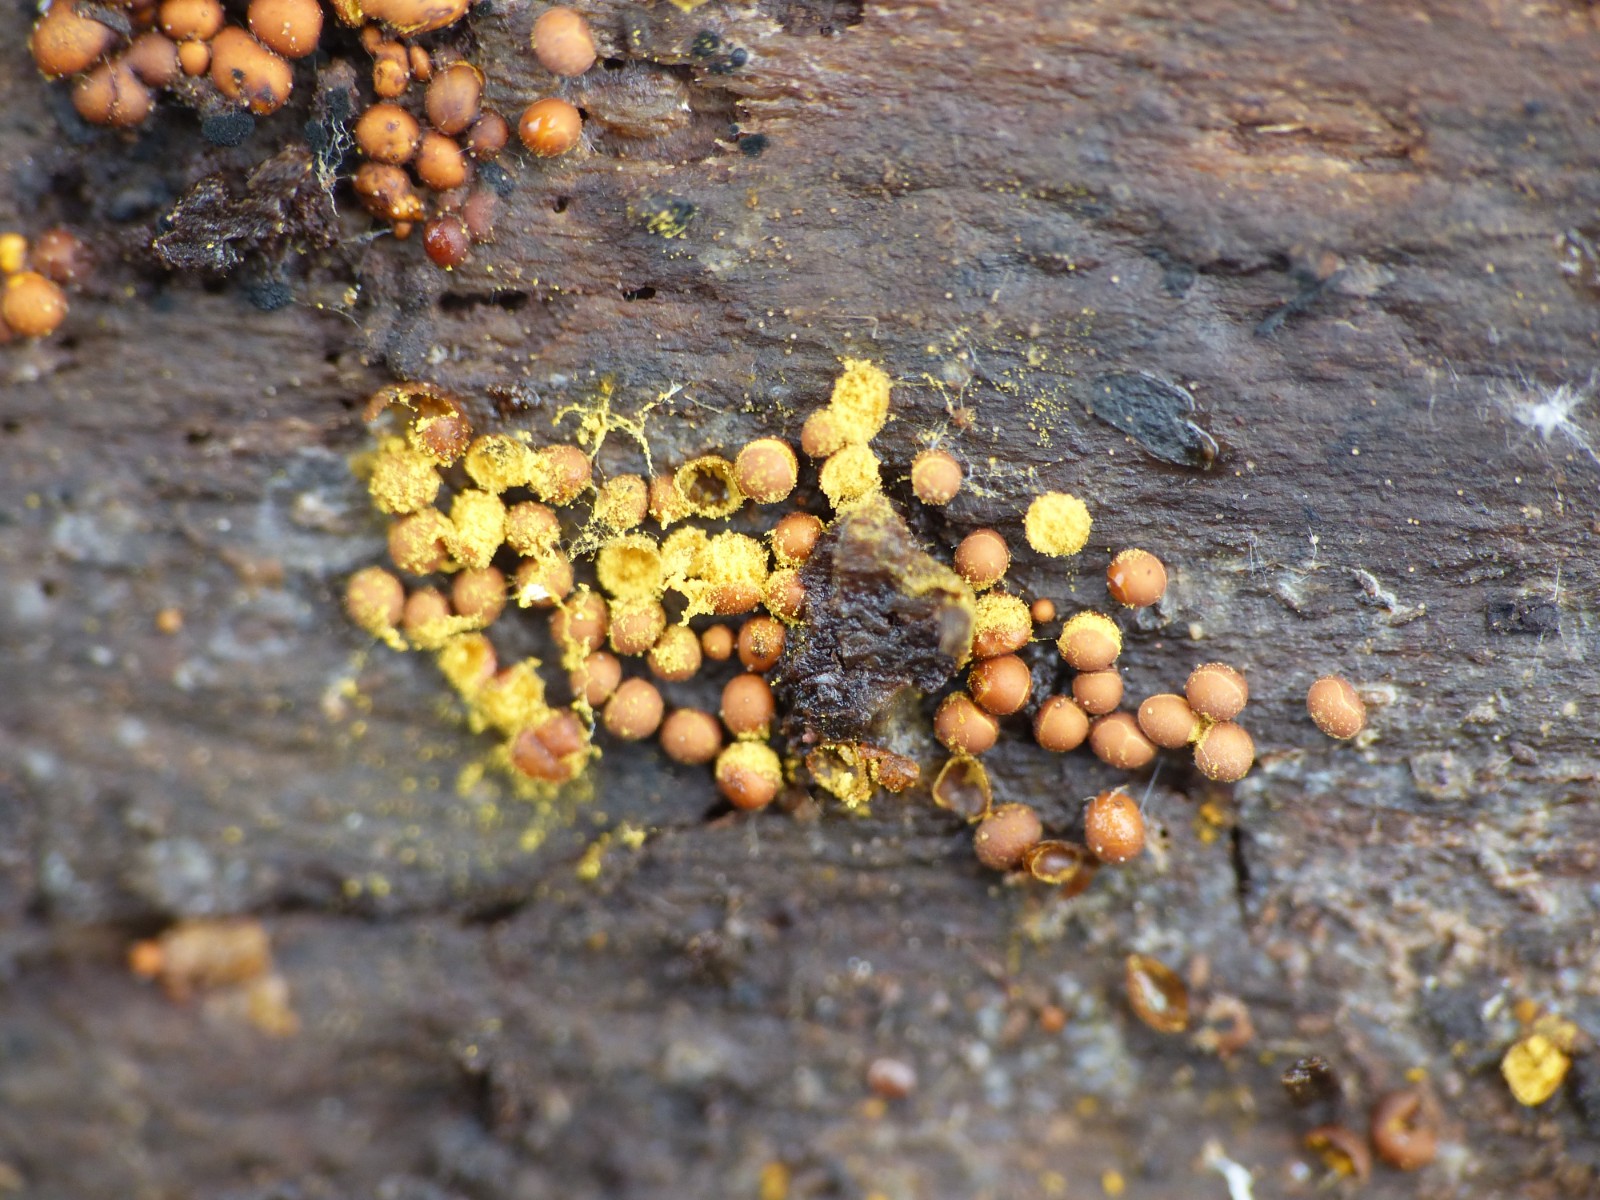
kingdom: Protozoa
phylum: Mycetozoa
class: Myxomycetes
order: Trichiales
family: Trichiaceae
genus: Perichaena
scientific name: Perichaena corticalis
